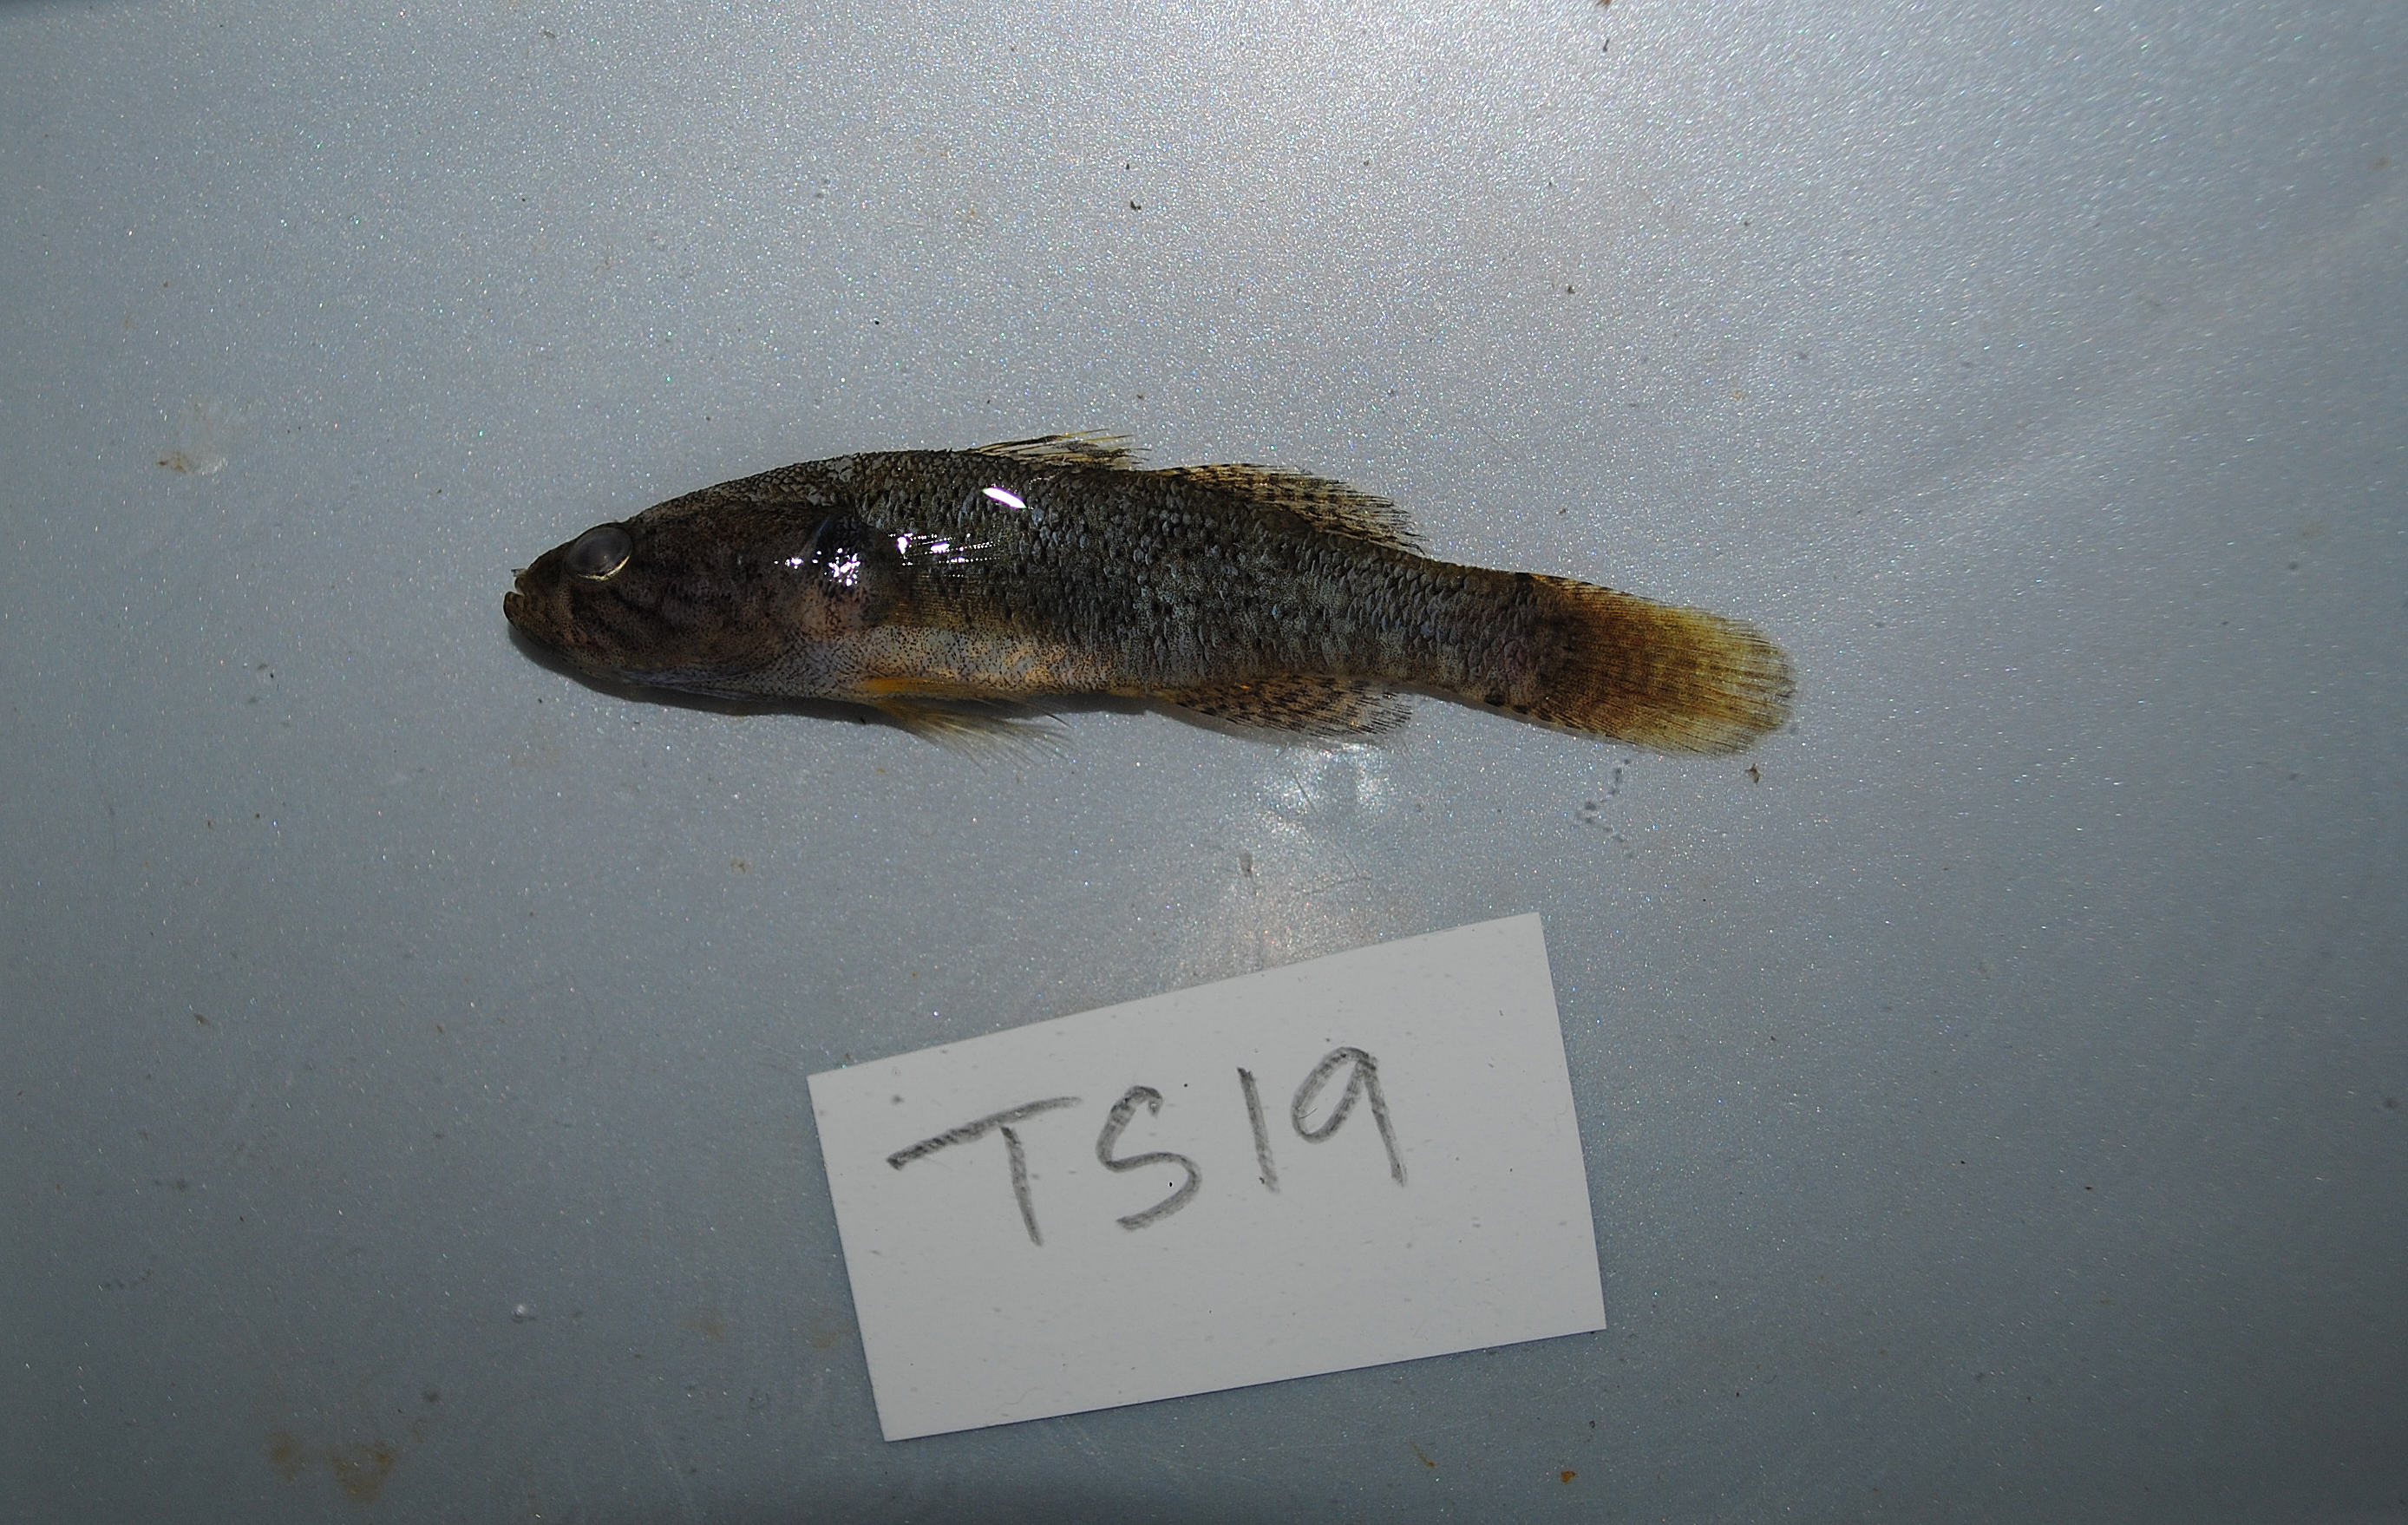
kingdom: Animalia
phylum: Chordata
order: Perciformes
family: Eleotridae
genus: Eleotris
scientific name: Eleotris
